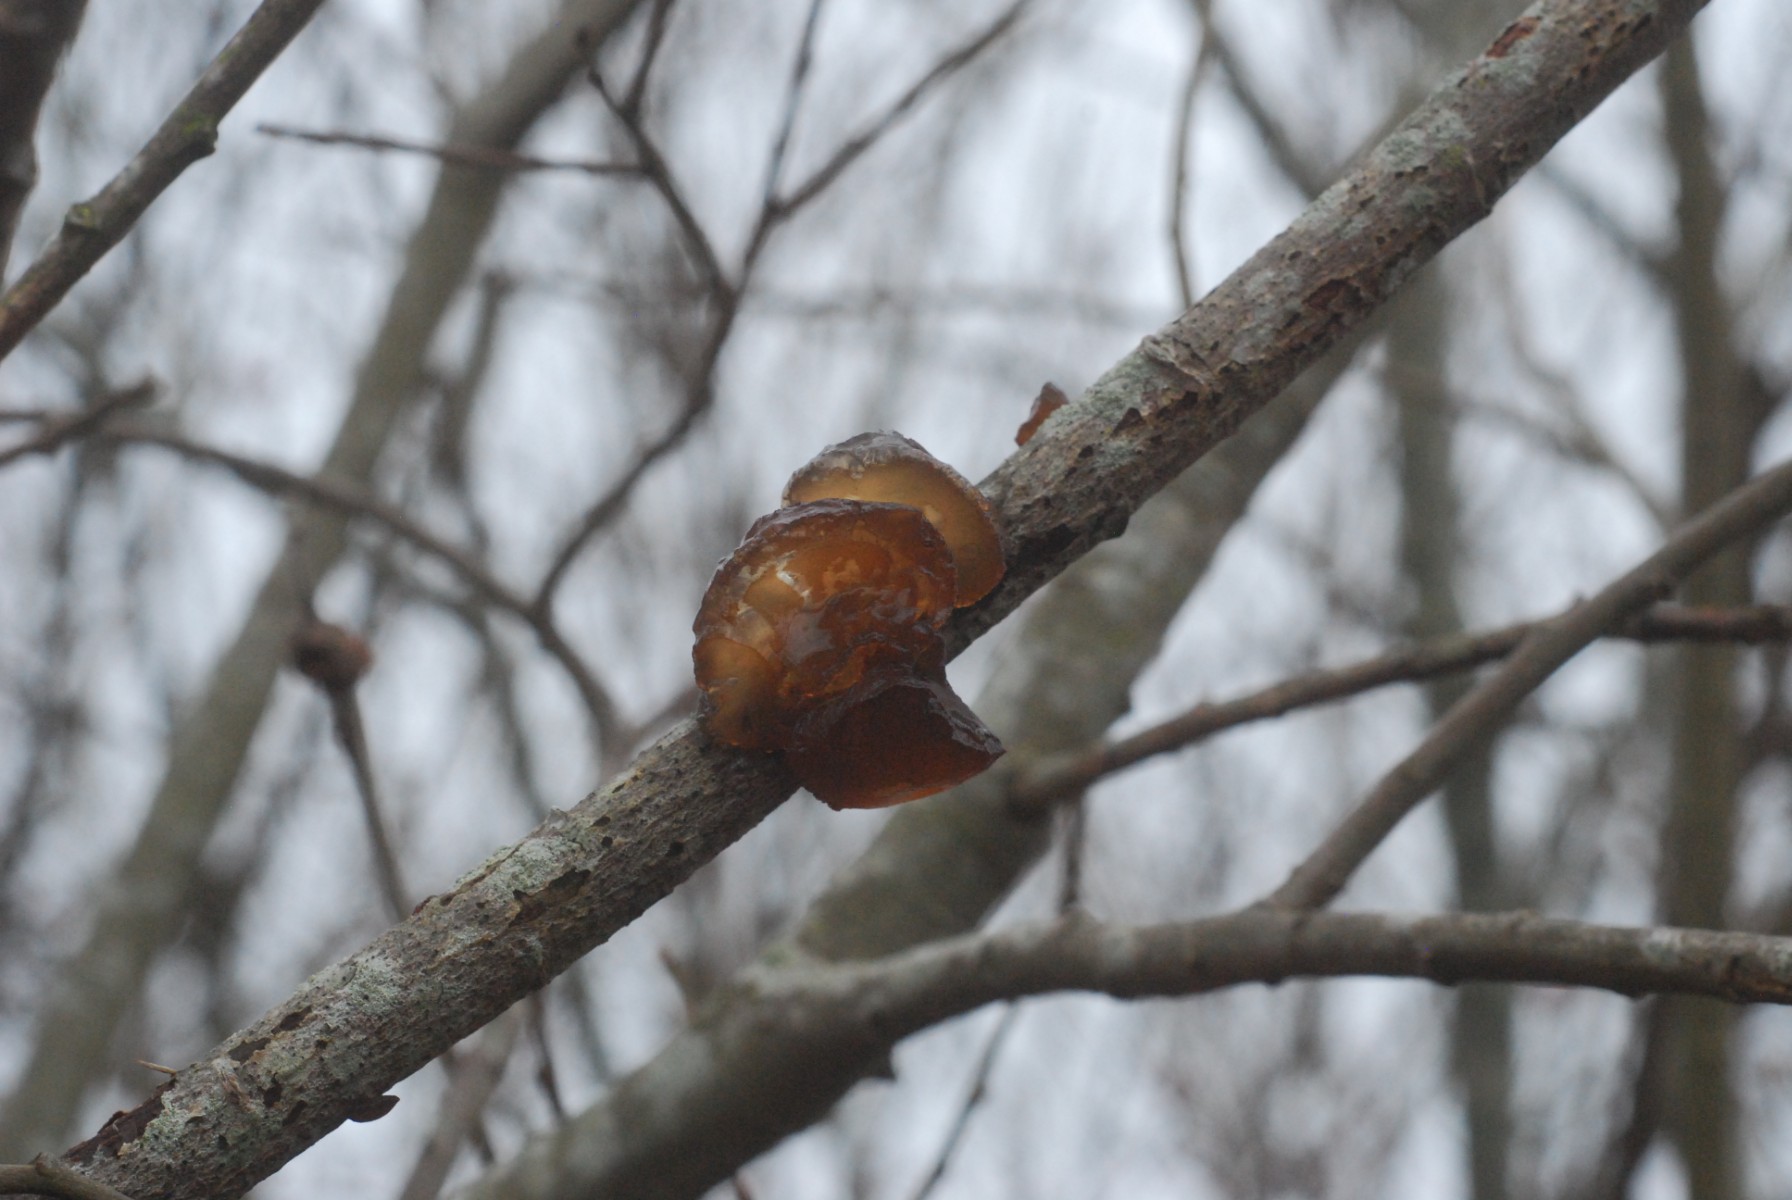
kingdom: Fungi
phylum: Basidiomycota
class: Agaricomycetes
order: Auriculariales
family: Auriculariaceae
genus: Exidia
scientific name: Exidia recisa
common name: pile-bævretop
